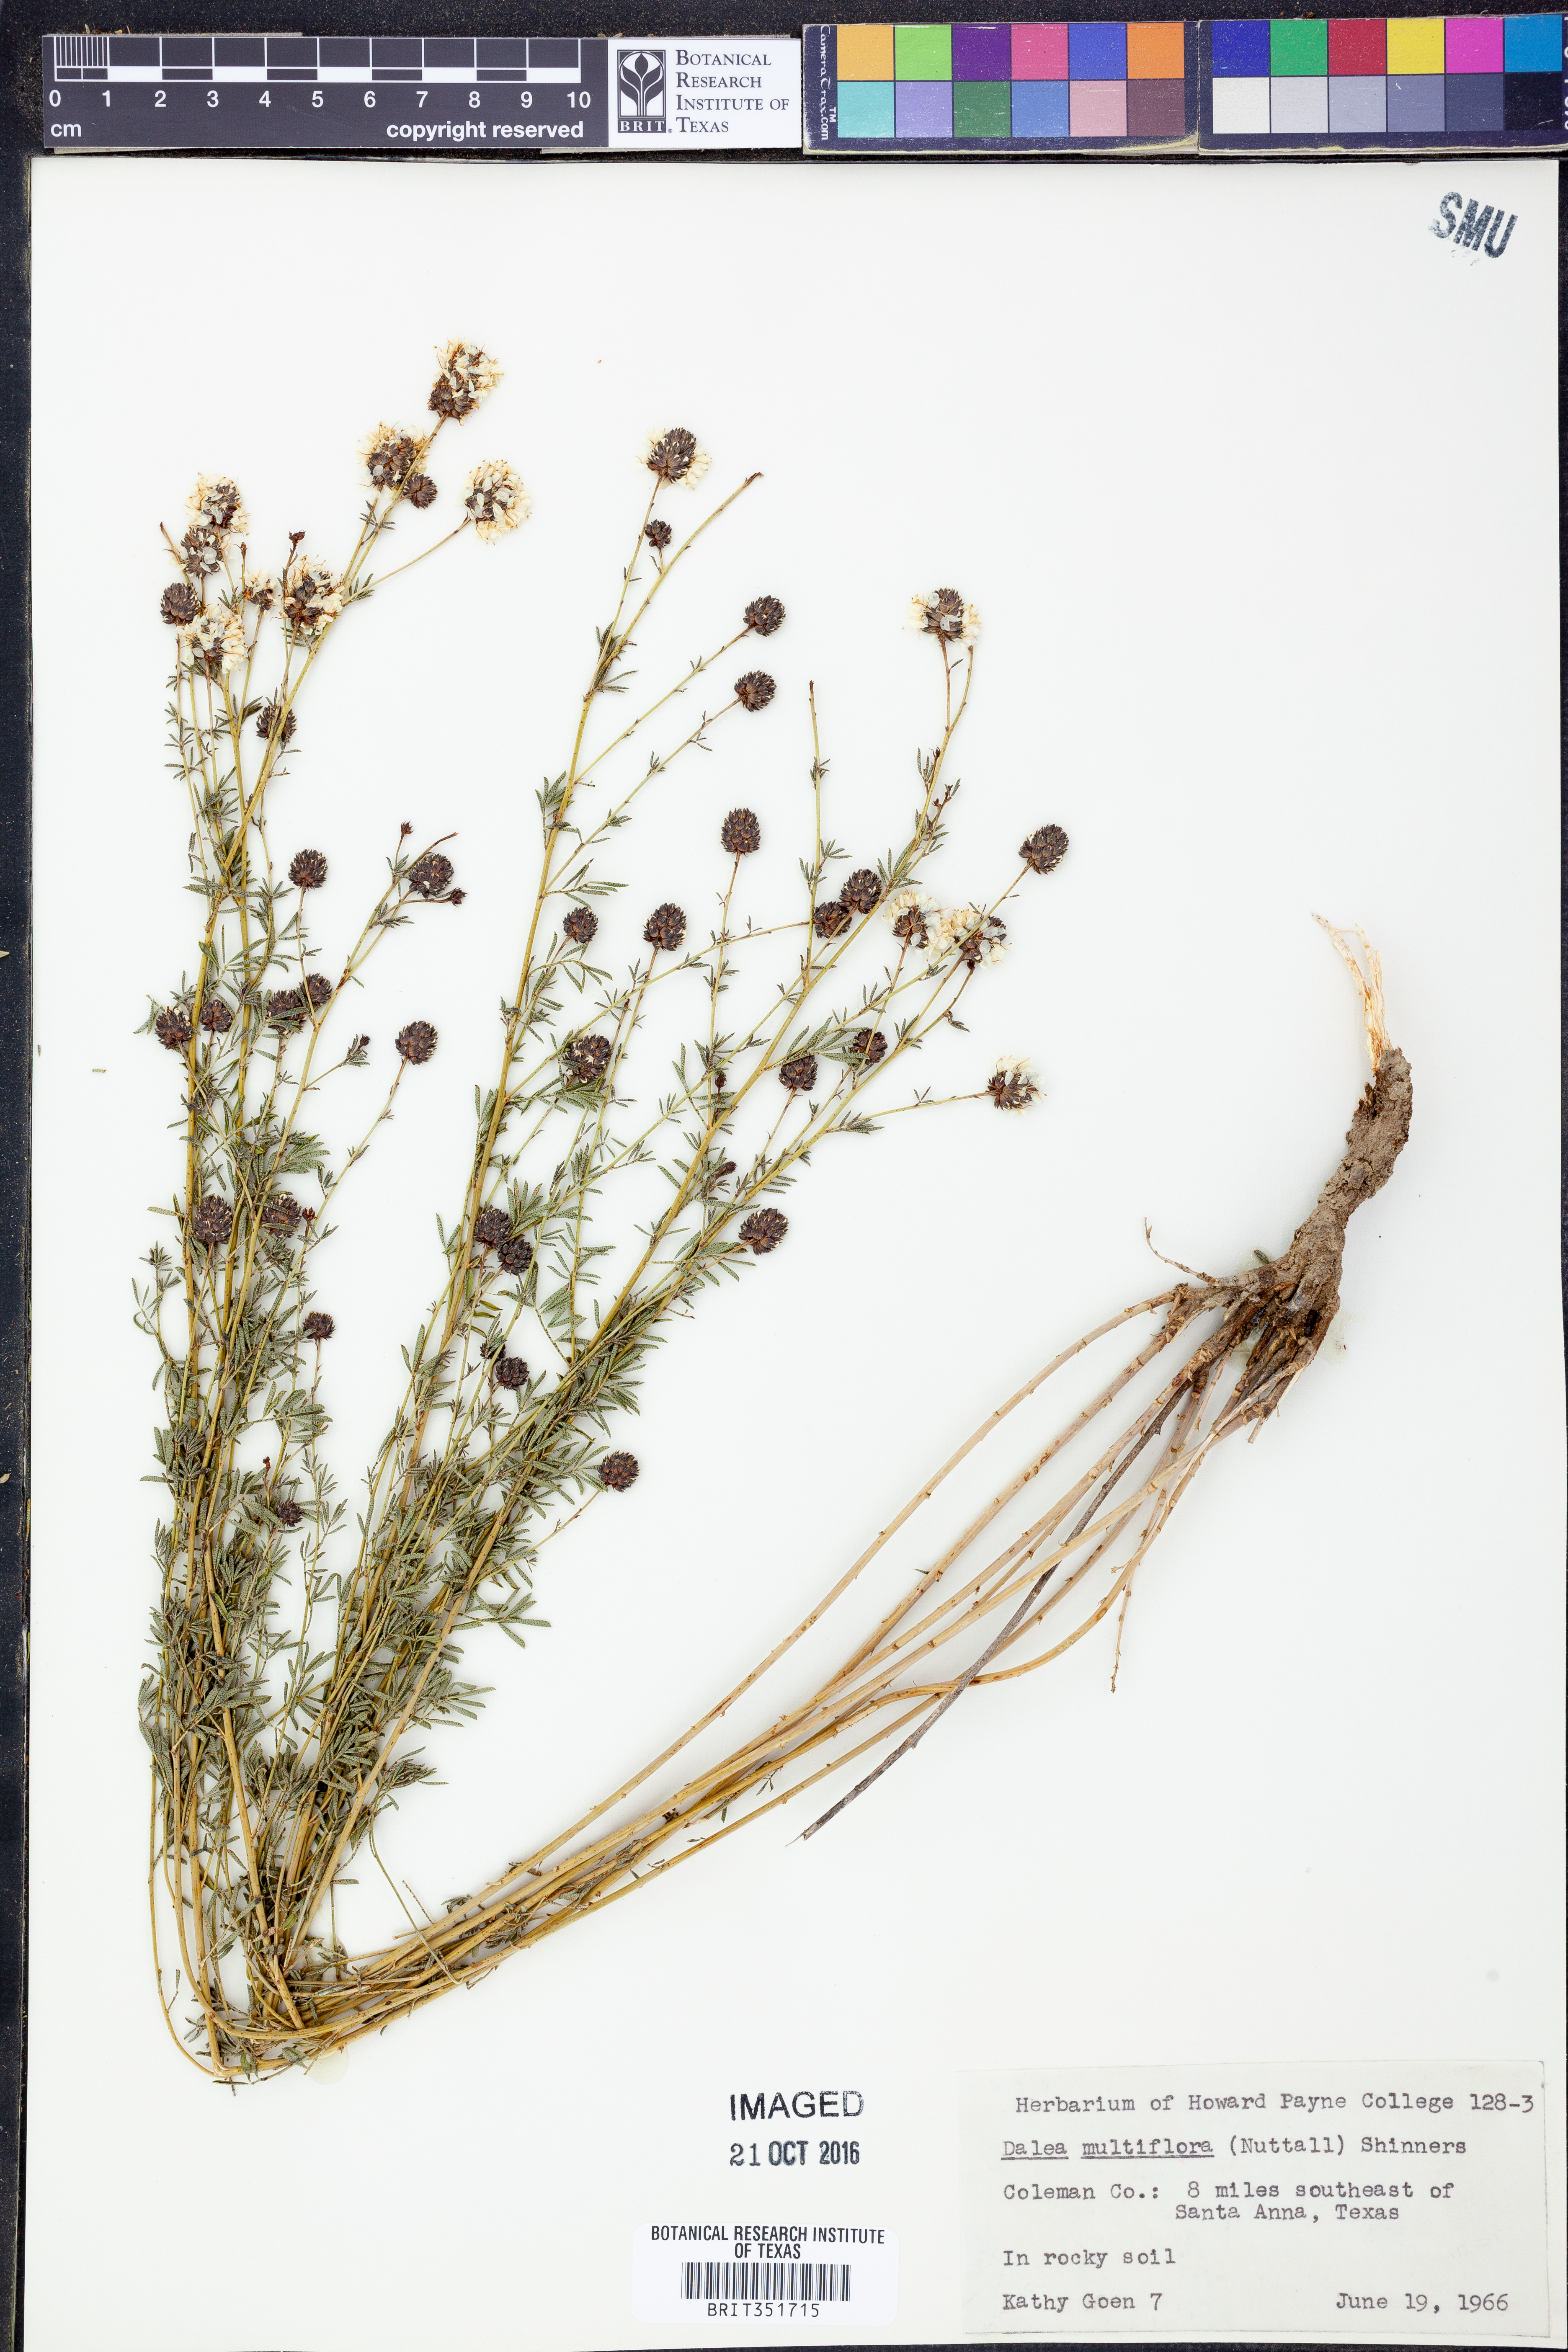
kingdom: Plantae
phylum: Tracheophyta
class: Magnoliopsida
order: Fabales
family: Fabaceae
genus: Dalea
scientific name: Dalea multiflora
